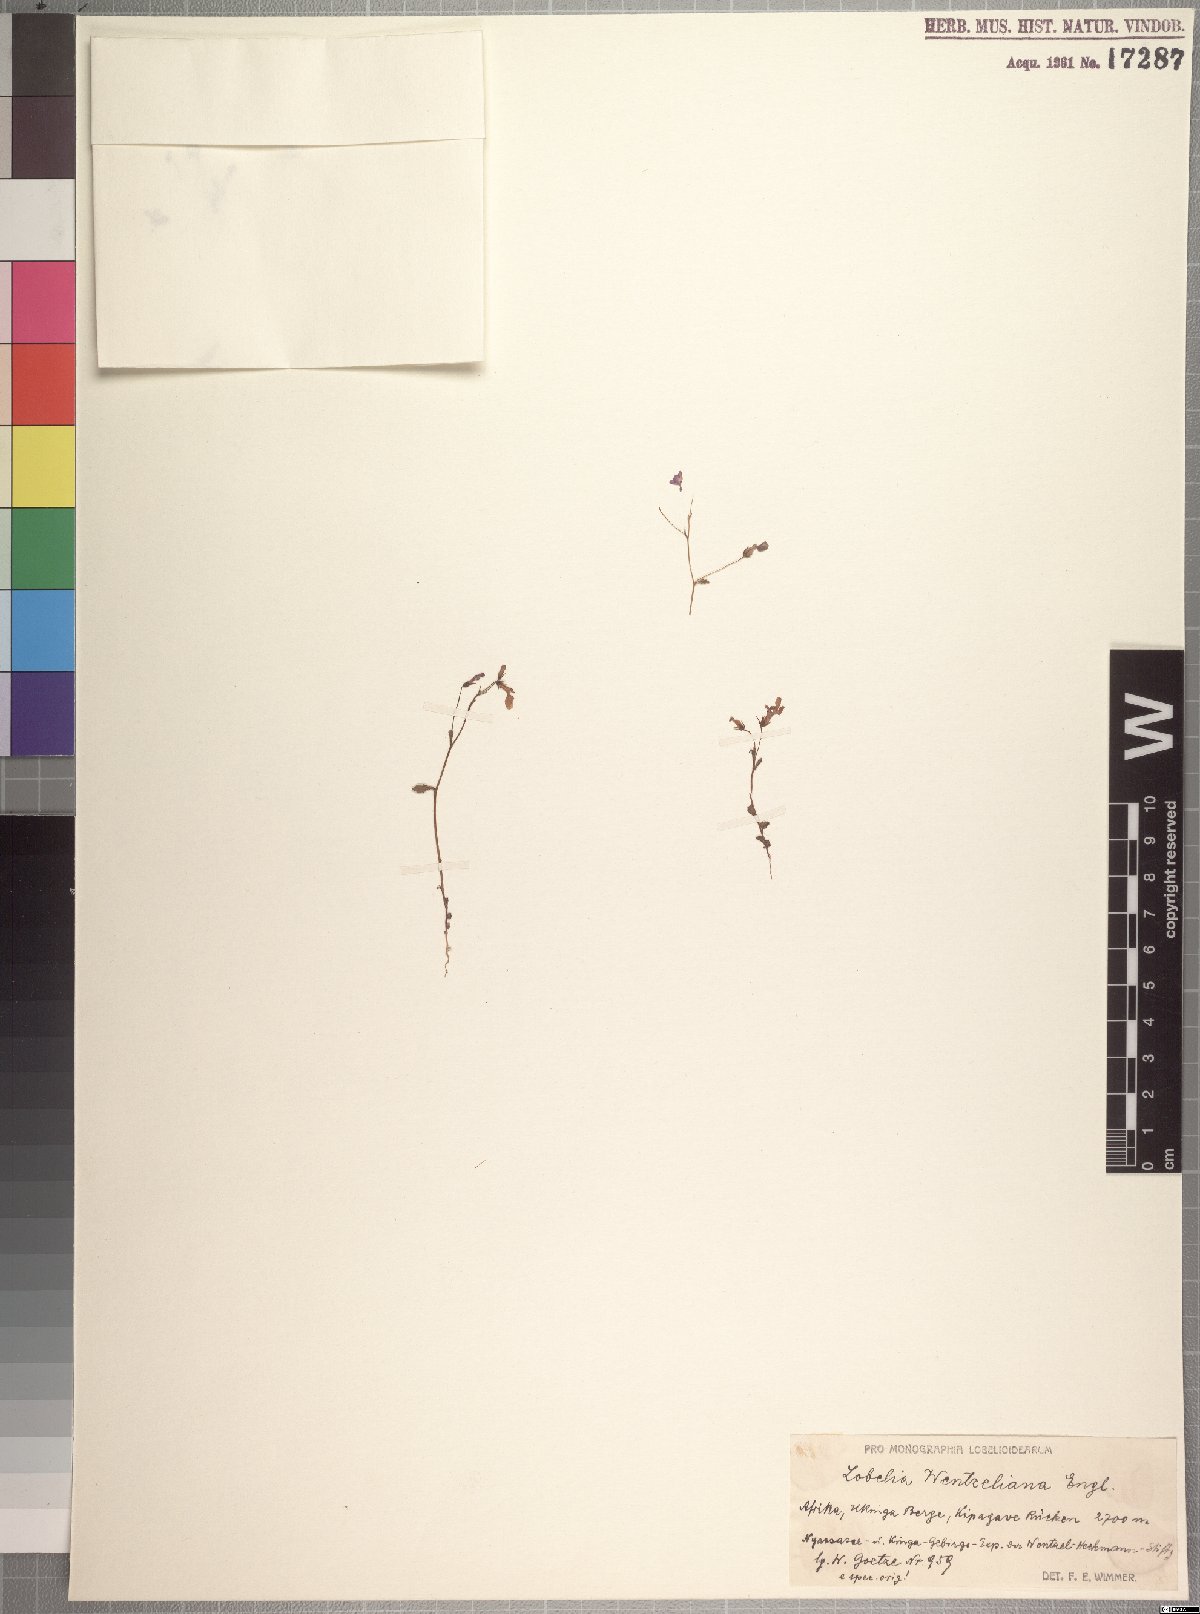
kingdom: Plantae
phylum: Tracheophyta
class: Magnoliopsida
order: Asterales
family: Campanulaceae
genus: Lobelia
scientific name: Lobelia trullifolia
